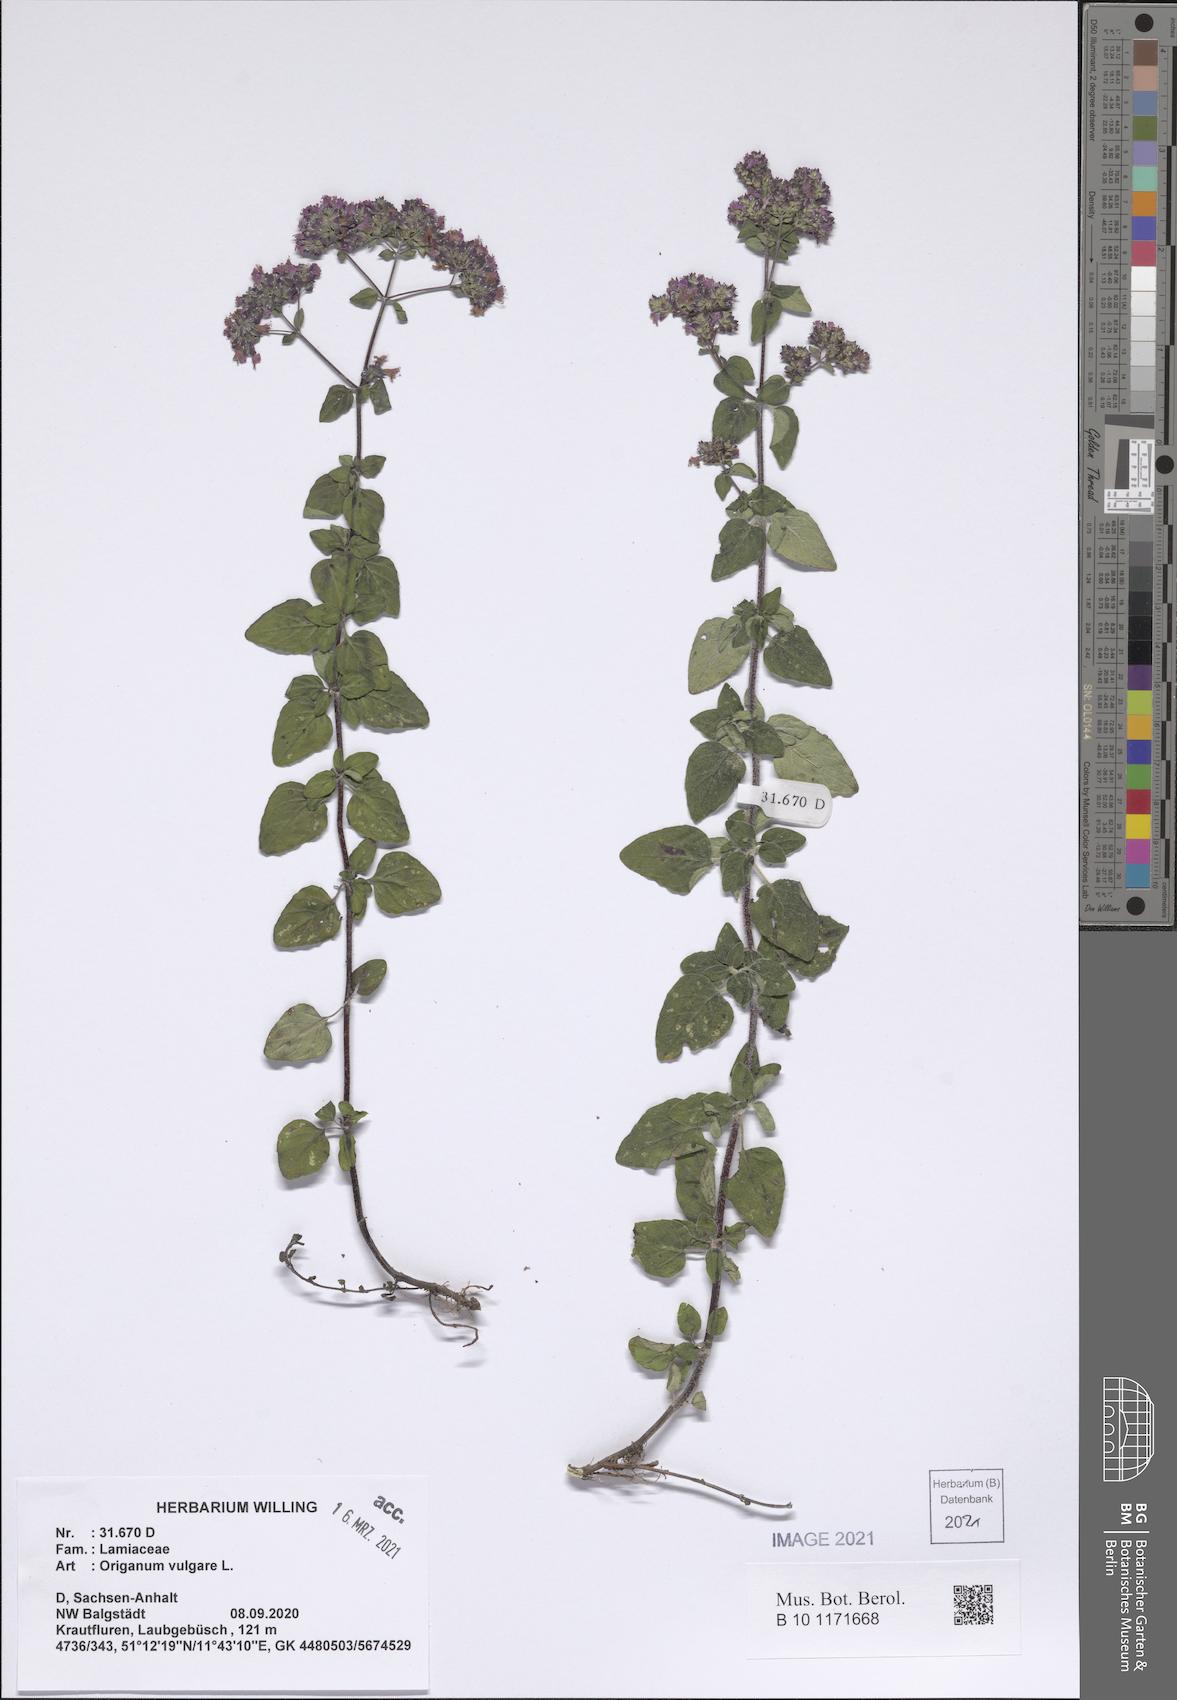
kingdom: Plantae
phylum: Tracheophyta
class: Magnoliopsida
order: Lamiales
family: Lamiaceae
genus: Origanum
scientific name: Origanum vulgare
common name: Wild marjoram
